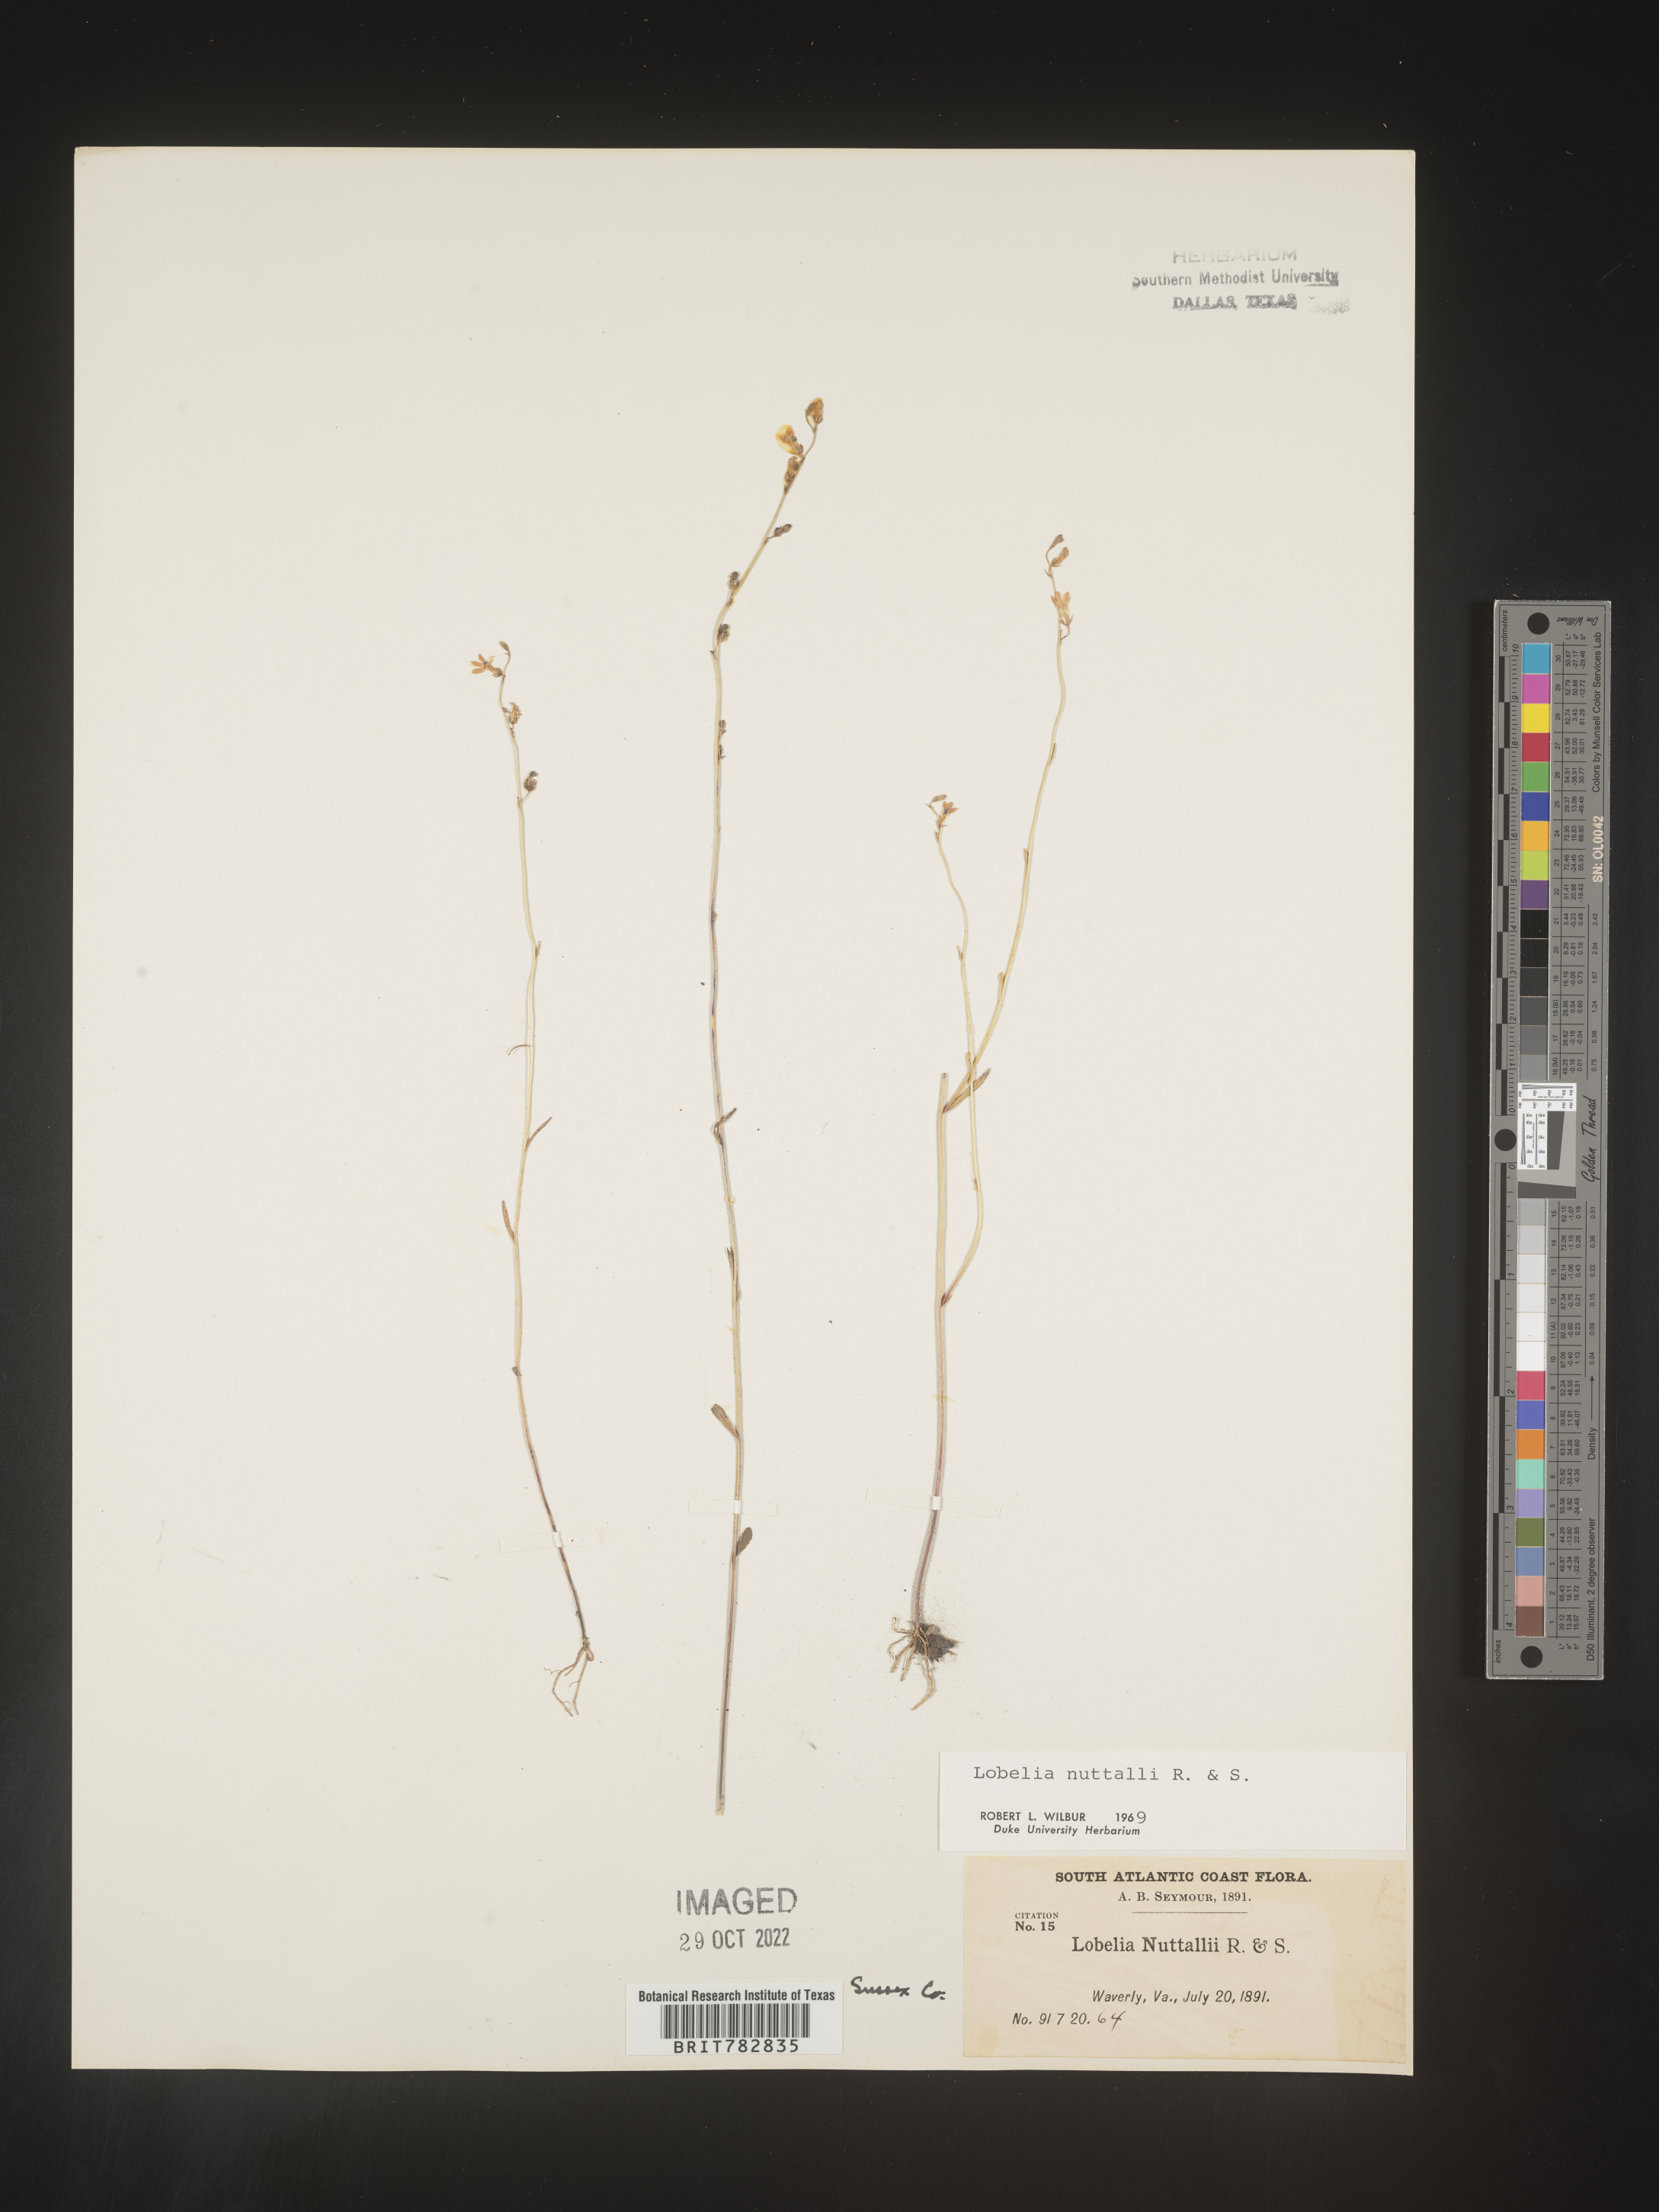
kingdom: Plantae
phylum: Tracheophyta
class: Magnoliopsida
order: Asterales
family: Campanulaceae
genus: Lobelia
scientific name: Lobelia nuttallii
